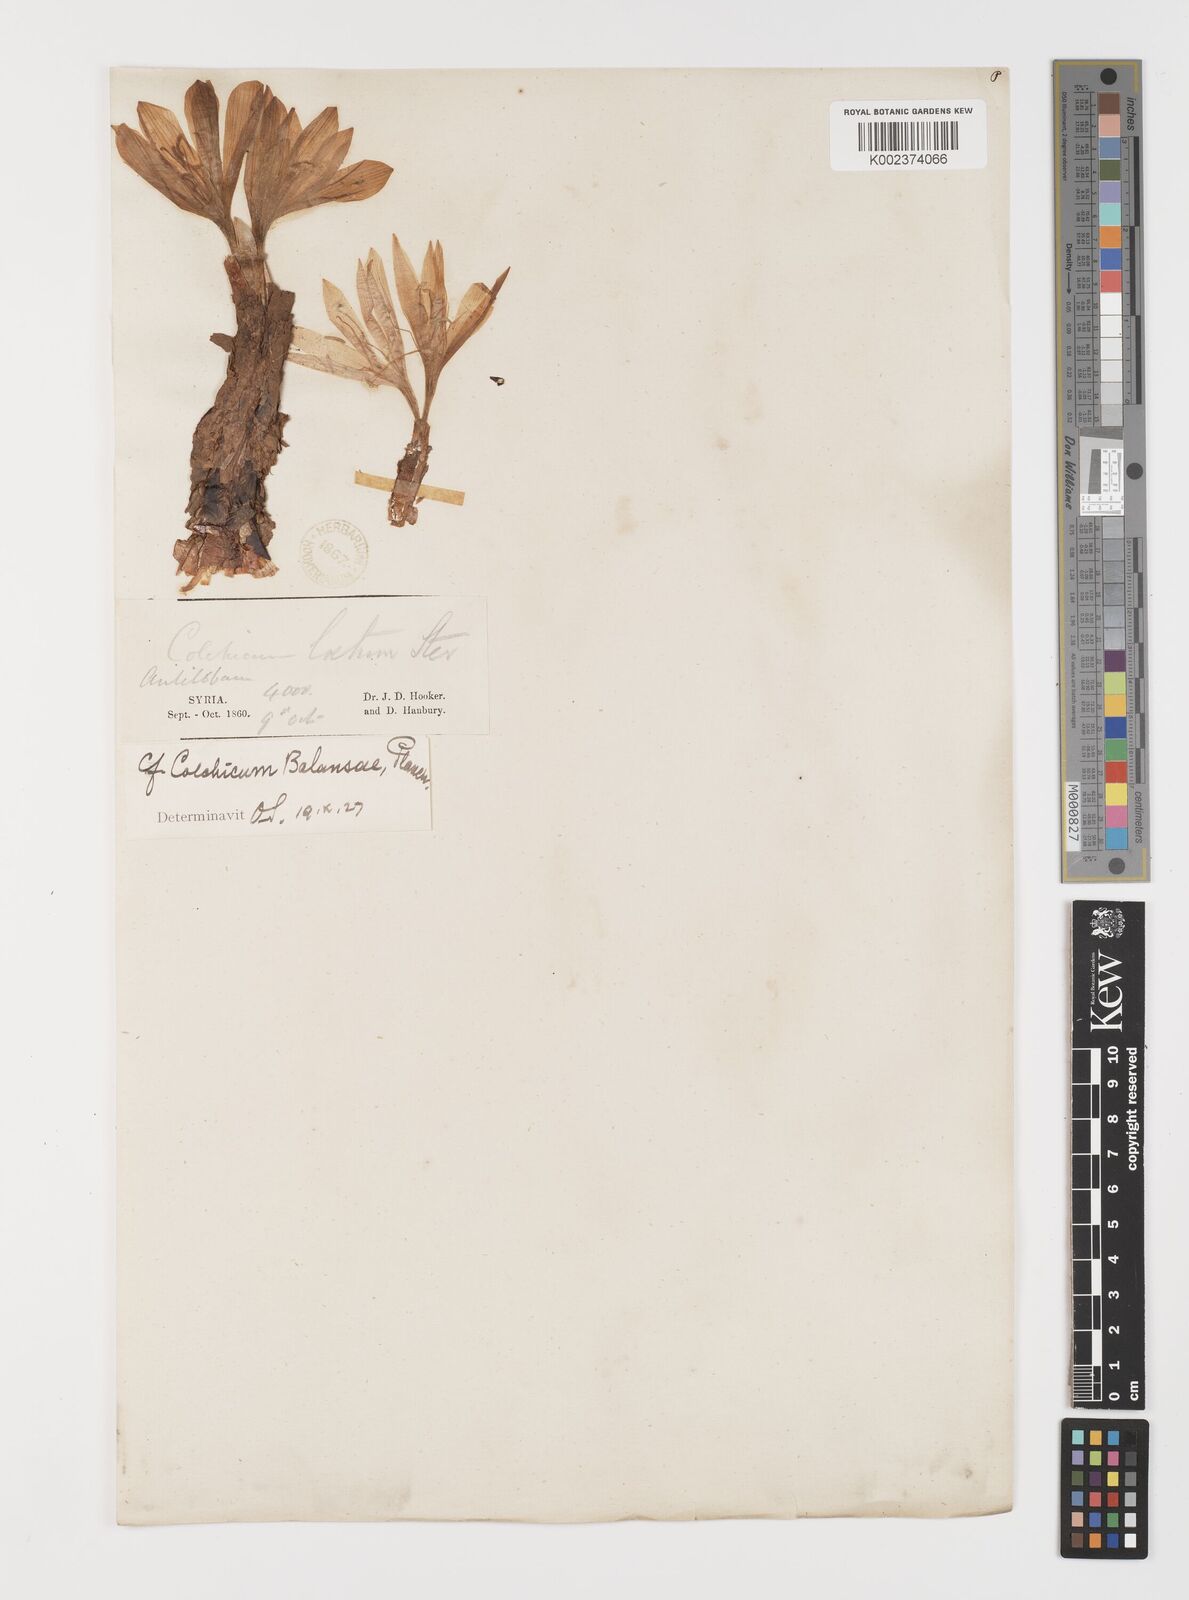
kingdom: Plantae
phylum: Tracheophyta
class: Liliopsida
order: Liliales
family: Colchicaceae
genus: Colchicum
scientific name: Colchicum balansae
